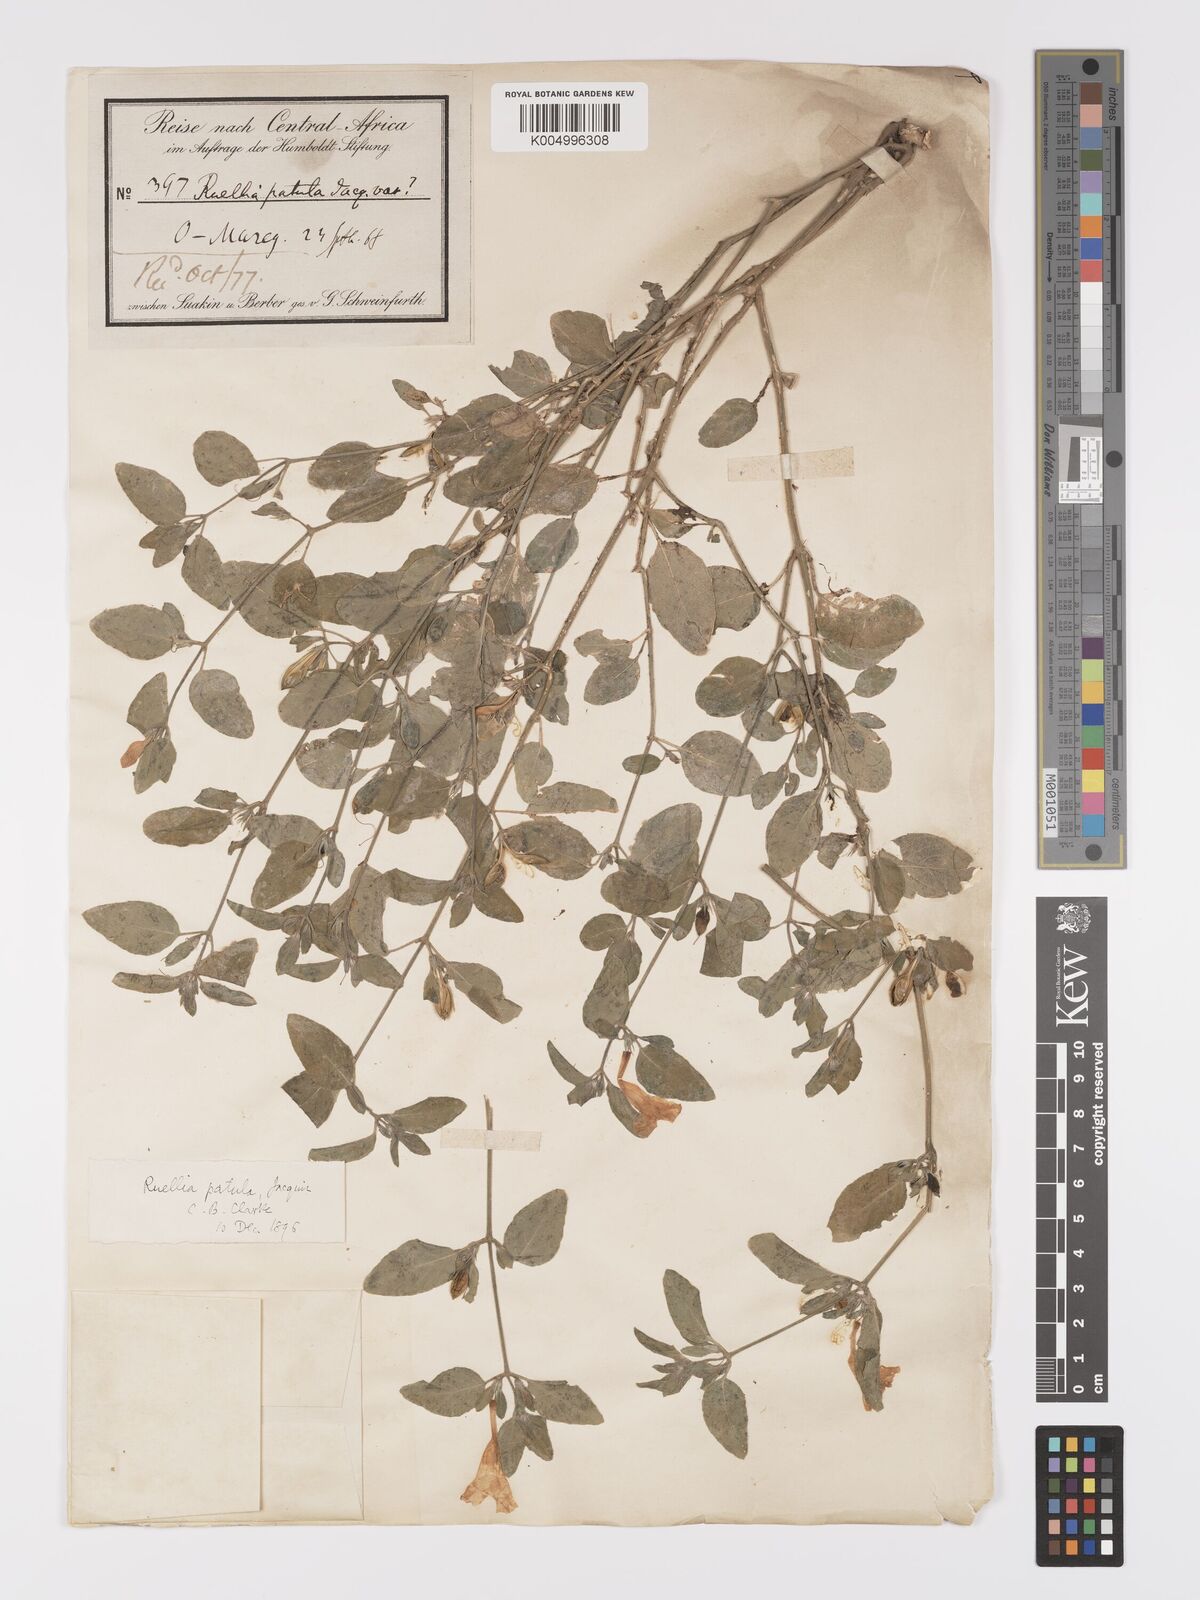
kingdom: Plantae
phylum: Tracheophyta
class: Magnoliopsida
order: Lamiales
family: Acanthaceae
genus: Ruellia
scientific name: Ruellia patula
